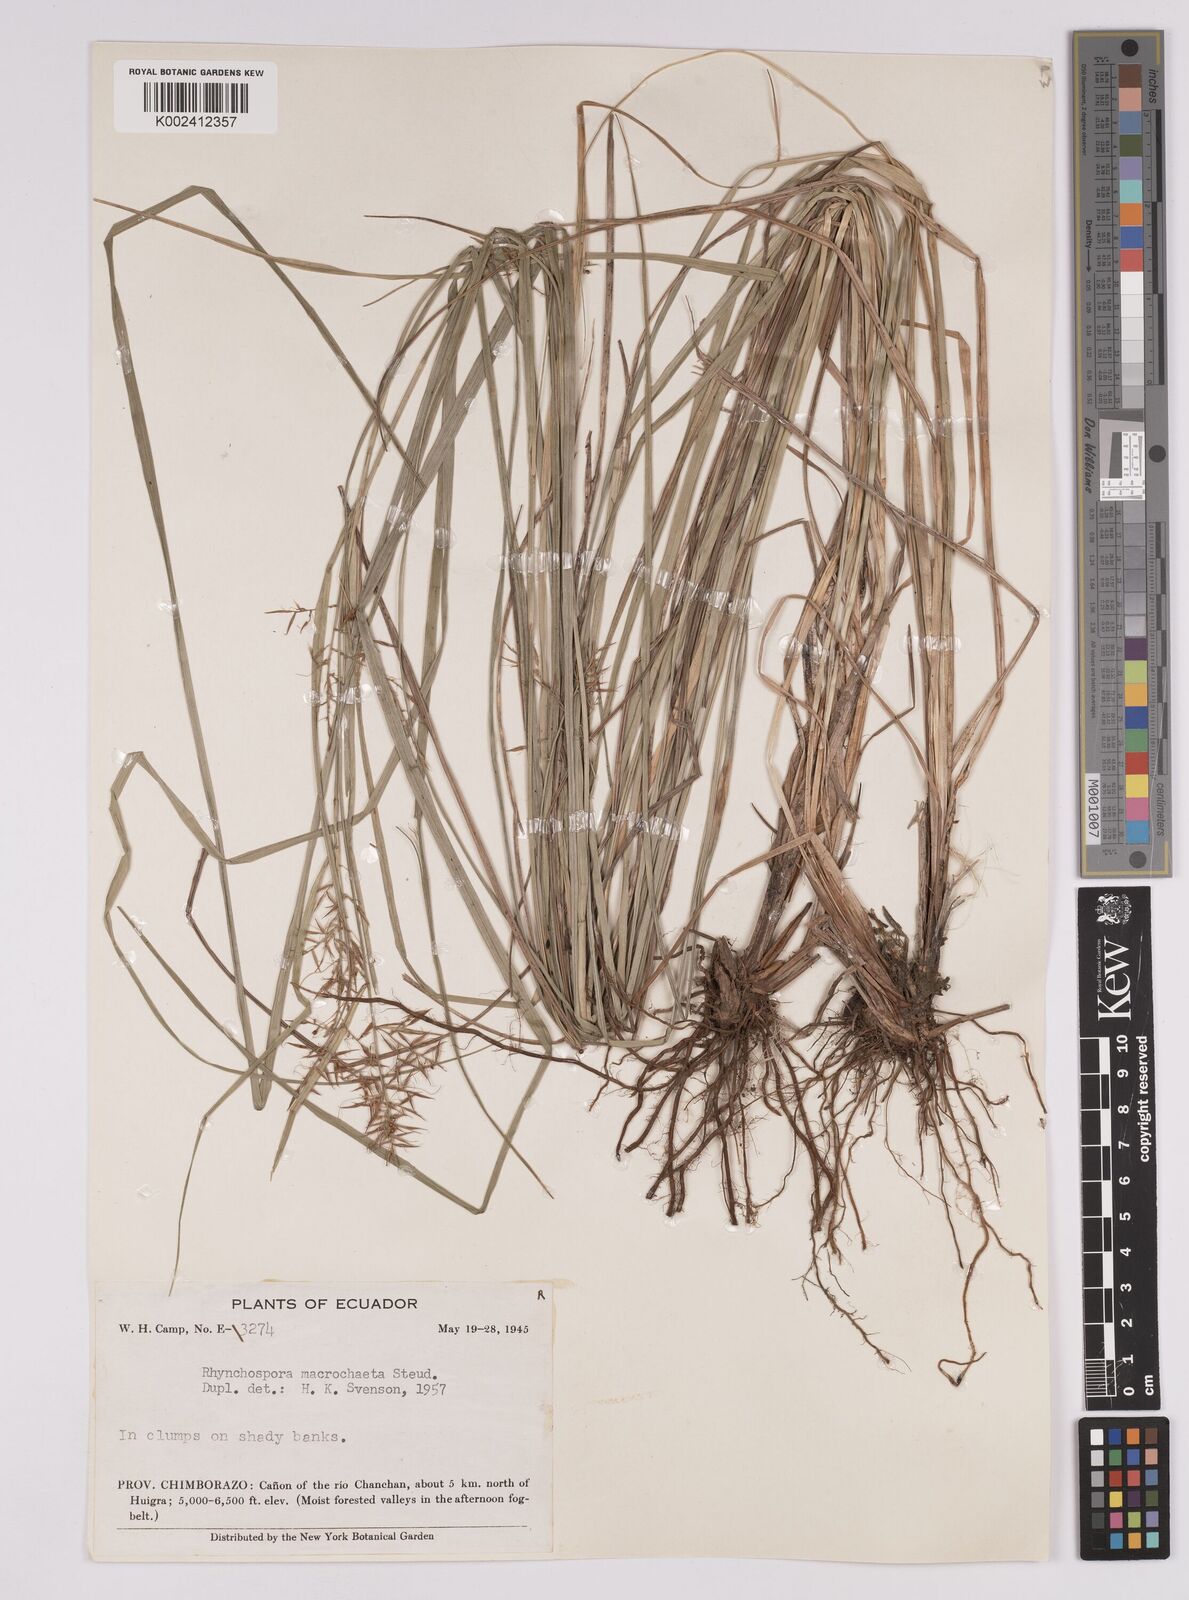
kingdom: Plantae
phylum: Tracheophyta
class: Liliopsida
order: Poales
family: Cyperaceae
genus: Rhynchospora
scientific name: Rhynchospora macrochaeta
